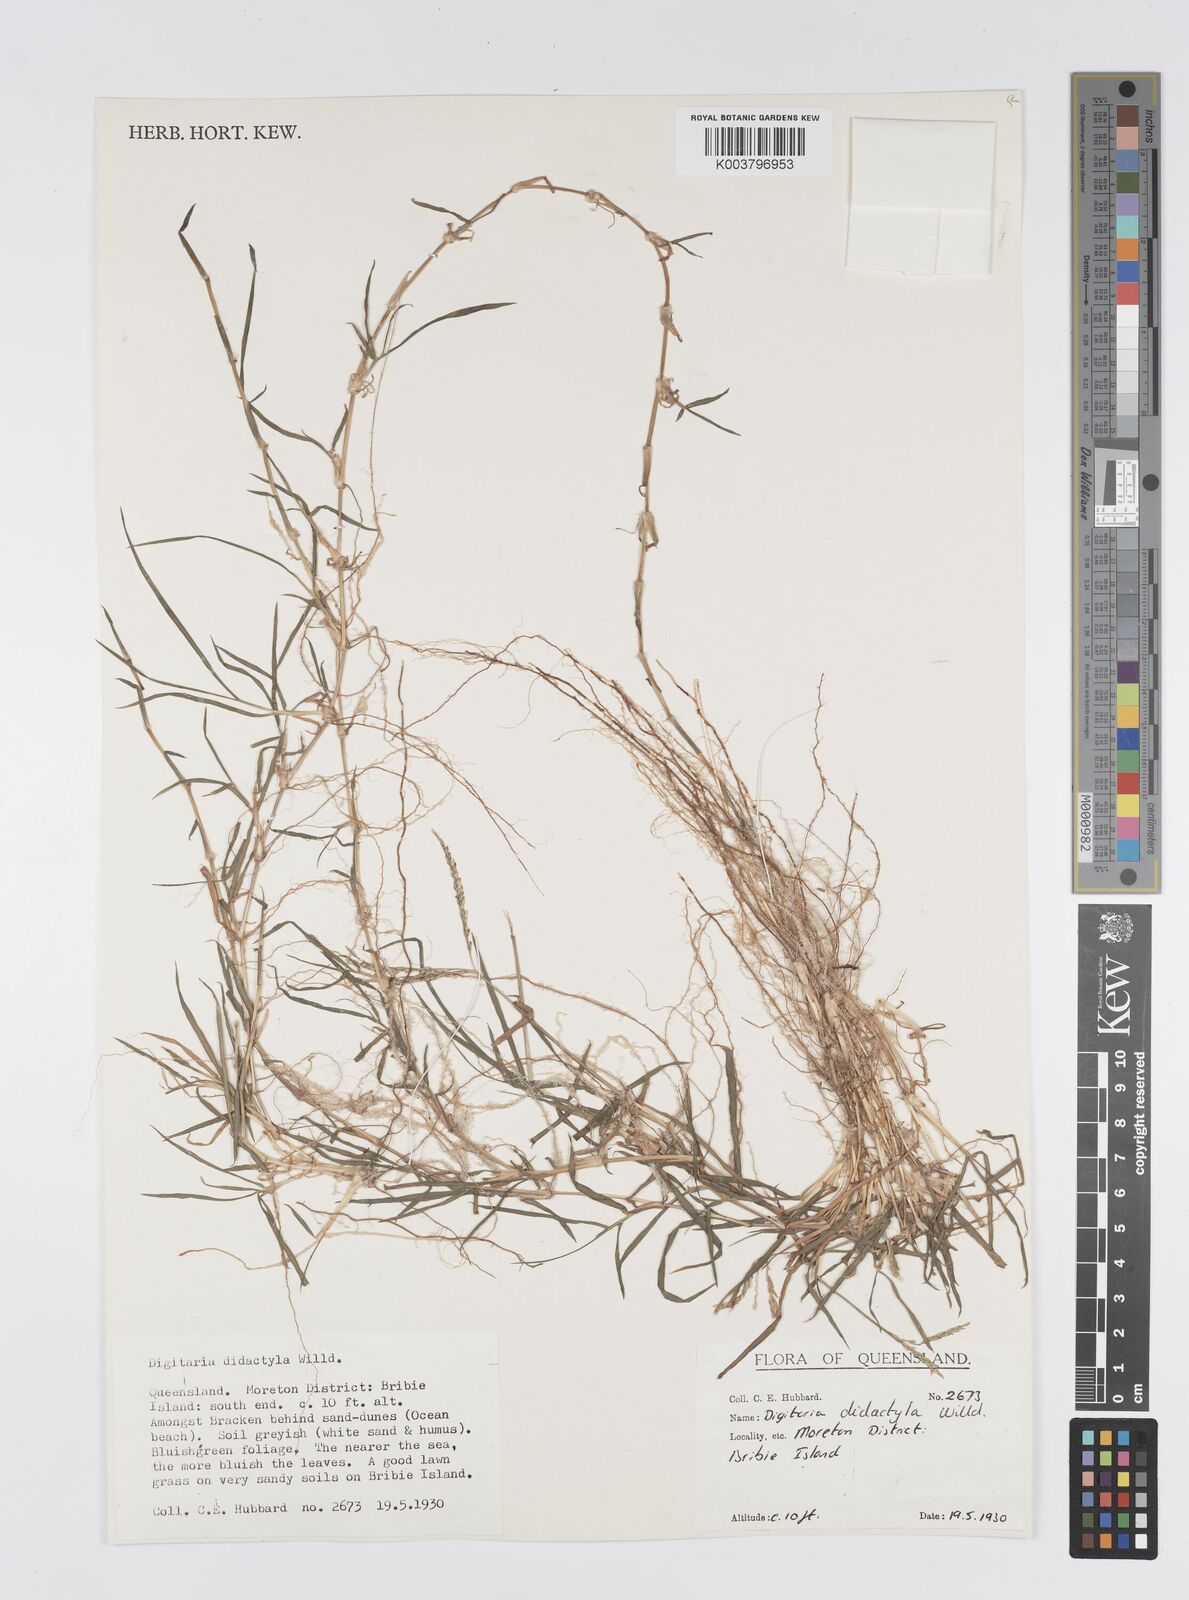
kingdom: Plantae
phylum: Tracheophyta
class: Liliopsida
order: Poales
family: Poaceae
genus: Digitaria
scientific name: Digitaria didactyla
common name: Blue couch
